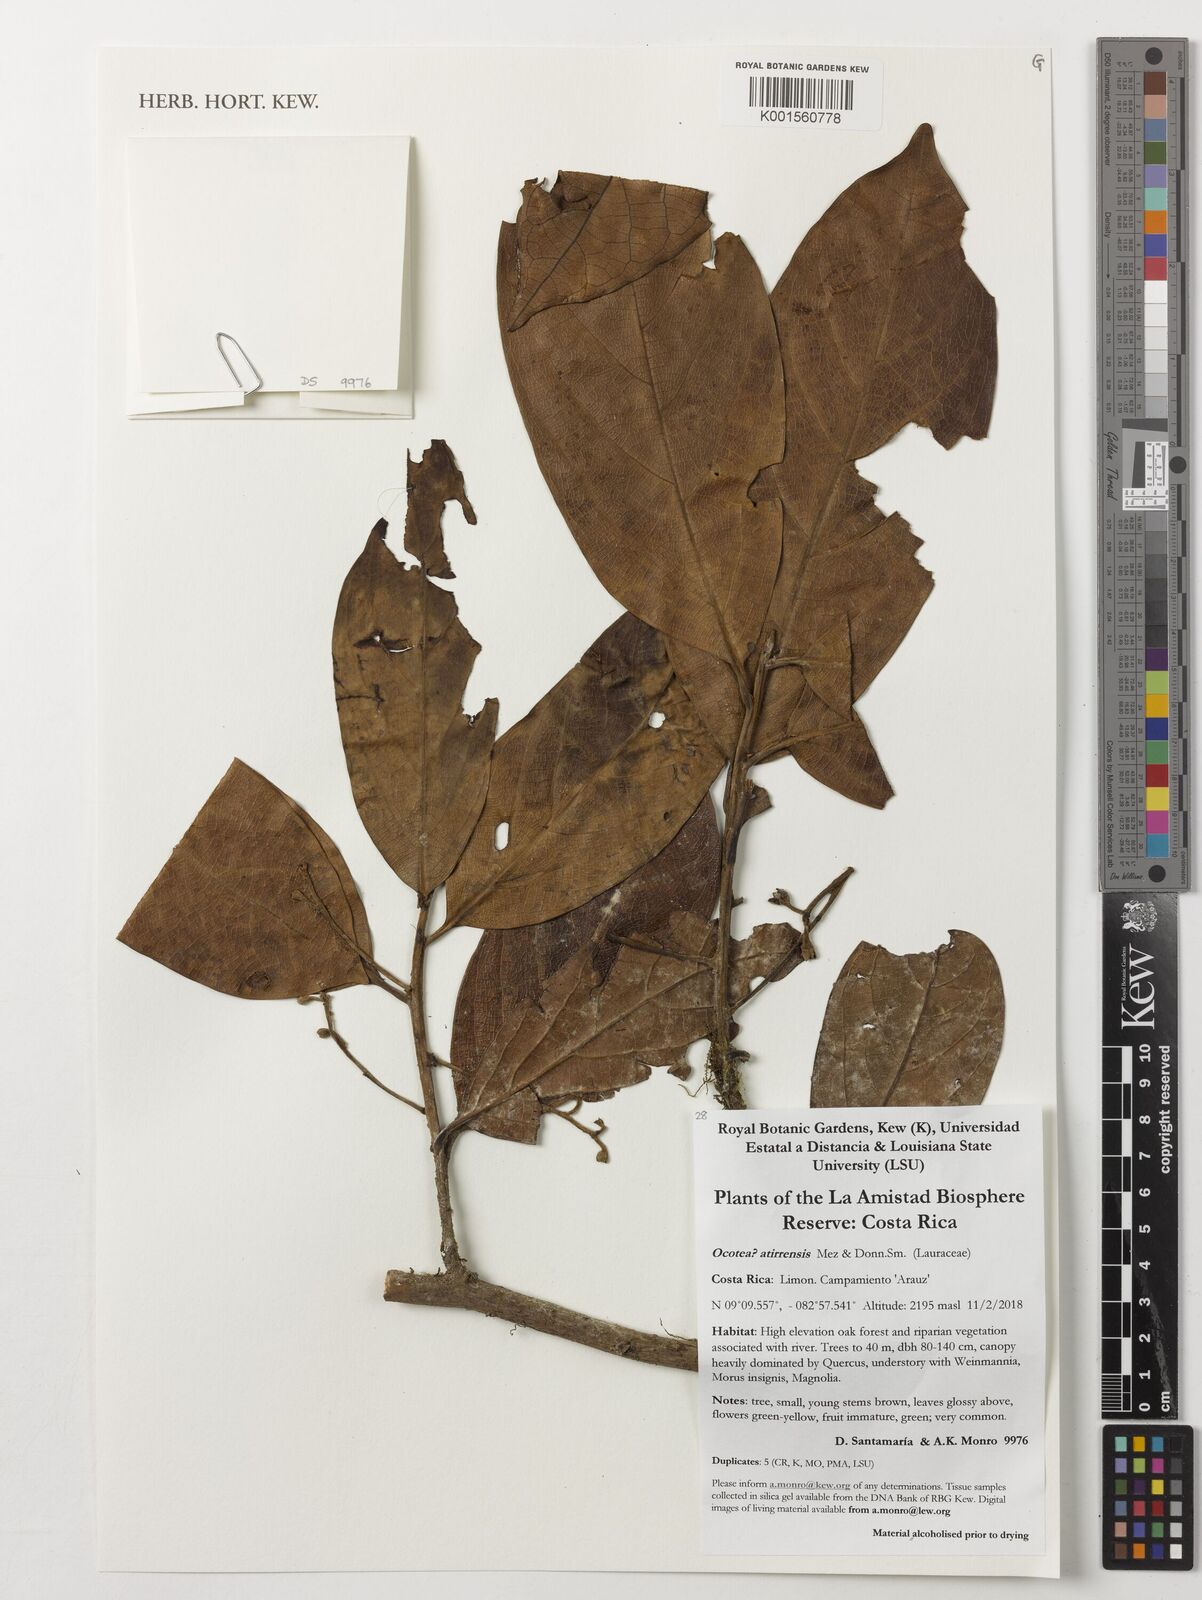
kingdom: Plantae
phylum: Tracheophyta
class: Magnoliopsida
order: Laurales
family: Lauraceae
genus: Ocotea
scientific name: Ocotea atirrensis
